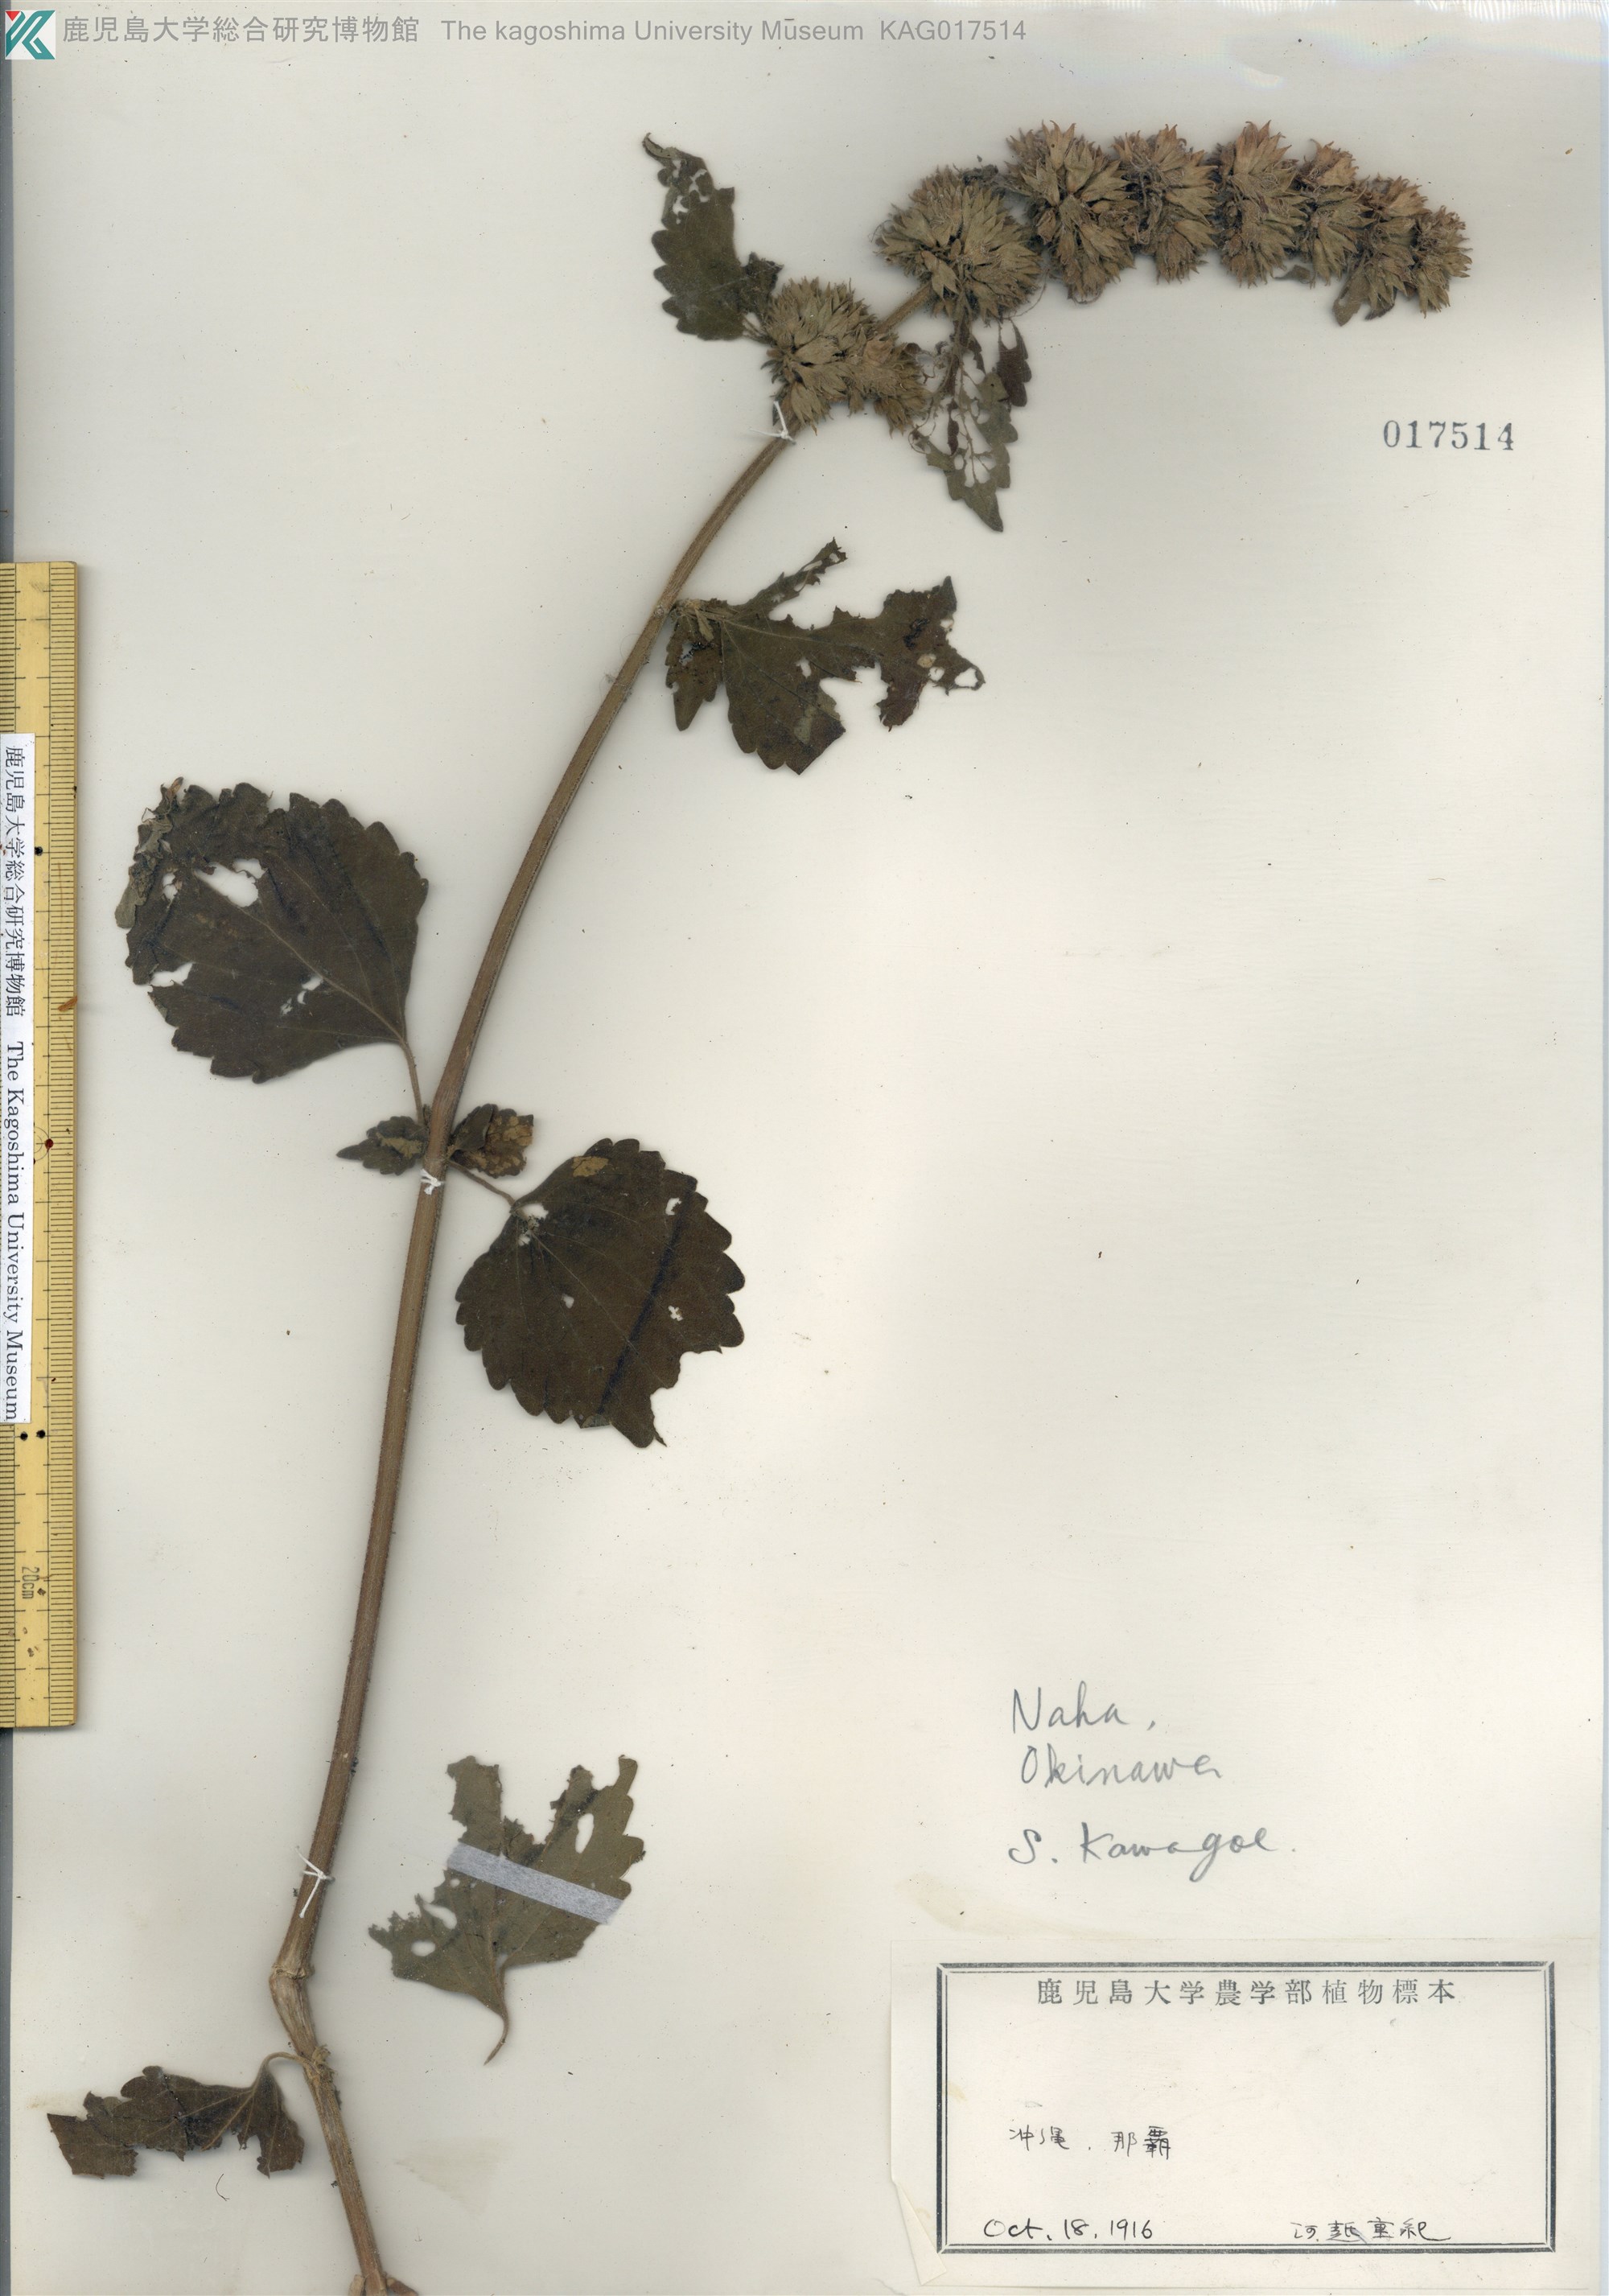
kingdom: Plantae
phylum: Tracheophyta
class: Magnoliopsida
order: Lamiales
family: Lamiaceae
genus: Anisomeles
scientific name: Anisomeles indica
